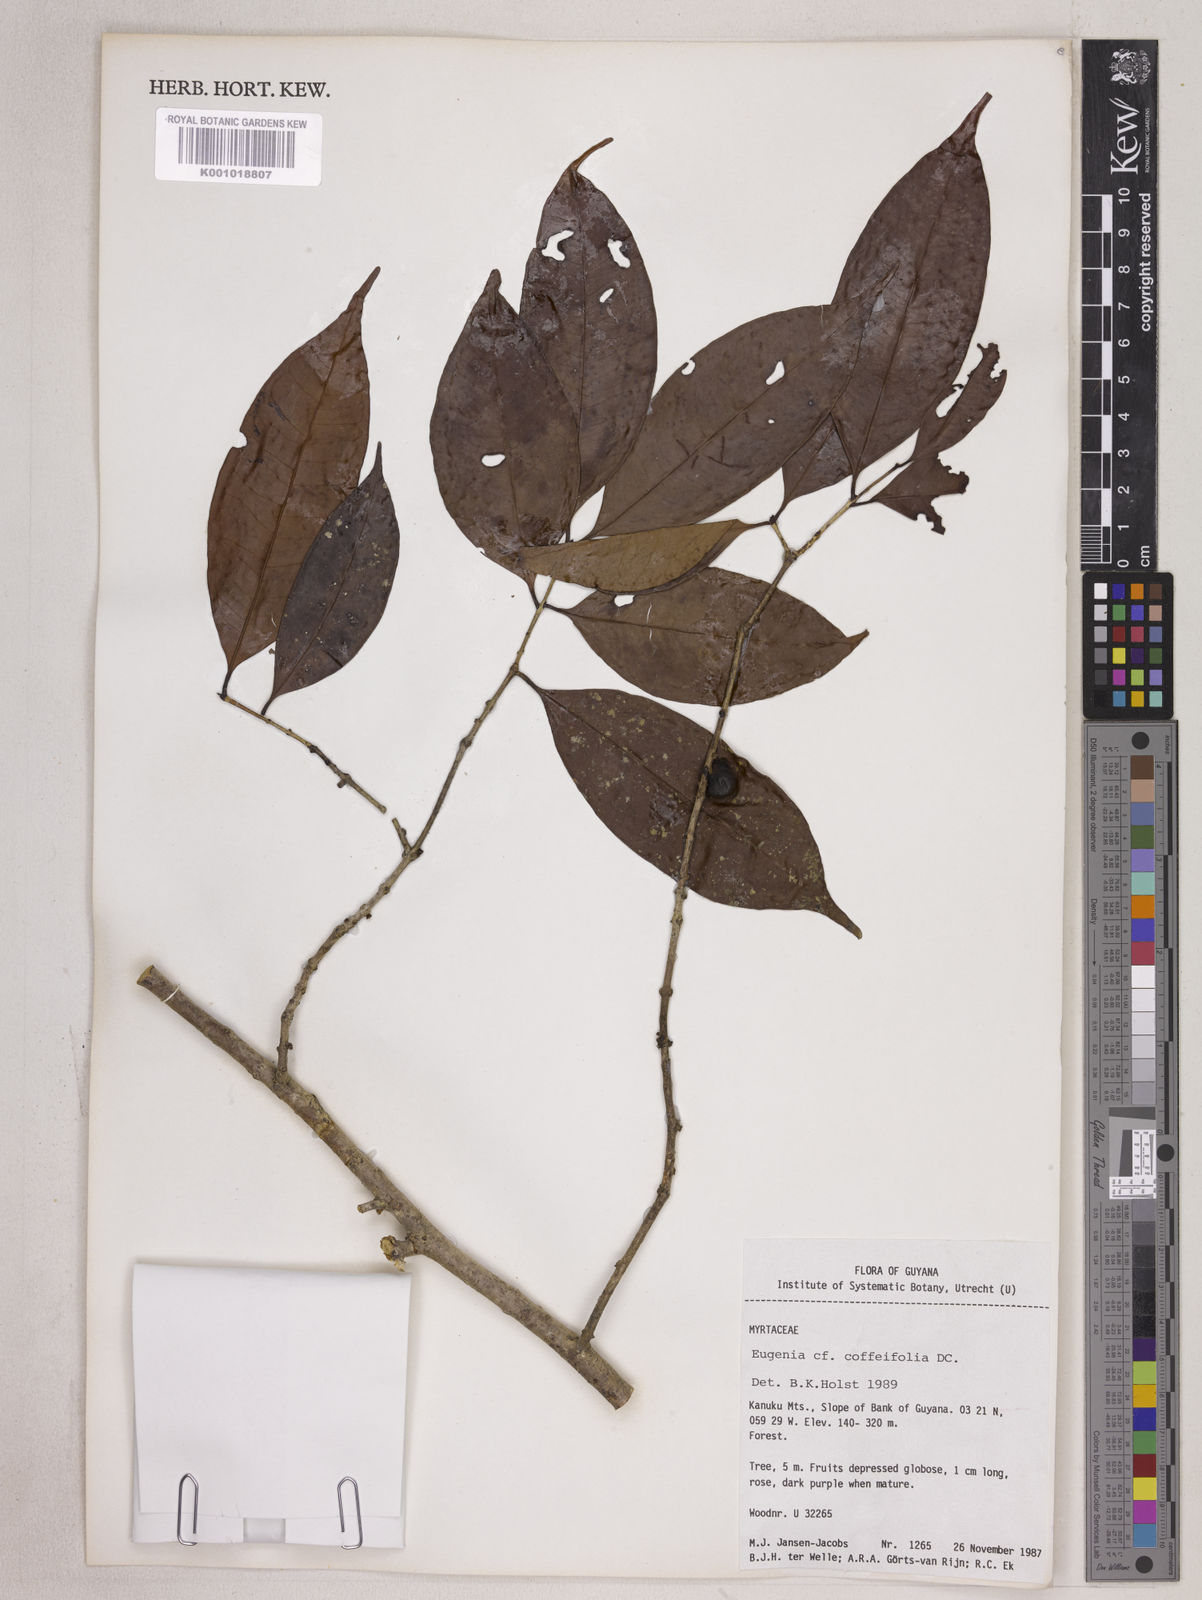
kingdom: Plantae
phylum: Tracheophyta
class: Magnoliopsida
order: Myrtales
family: Myrtaceae
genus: Eugenia
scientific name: Eugenia coffeifolia
